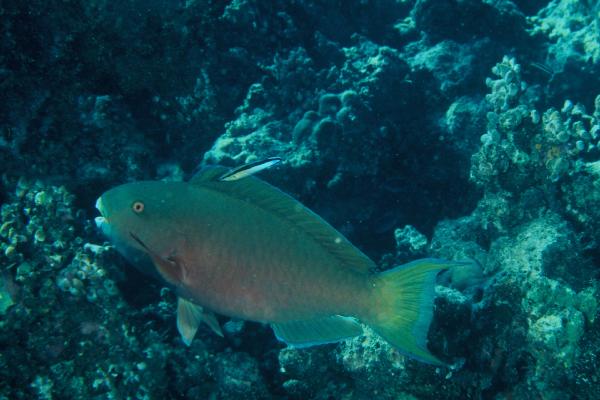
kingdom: Animalia
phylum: Chordata
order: Perciformes
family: Scaridae
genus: Chlorurus
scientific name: Chlorurus strongylocephalus
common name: Steephead parrotfish
